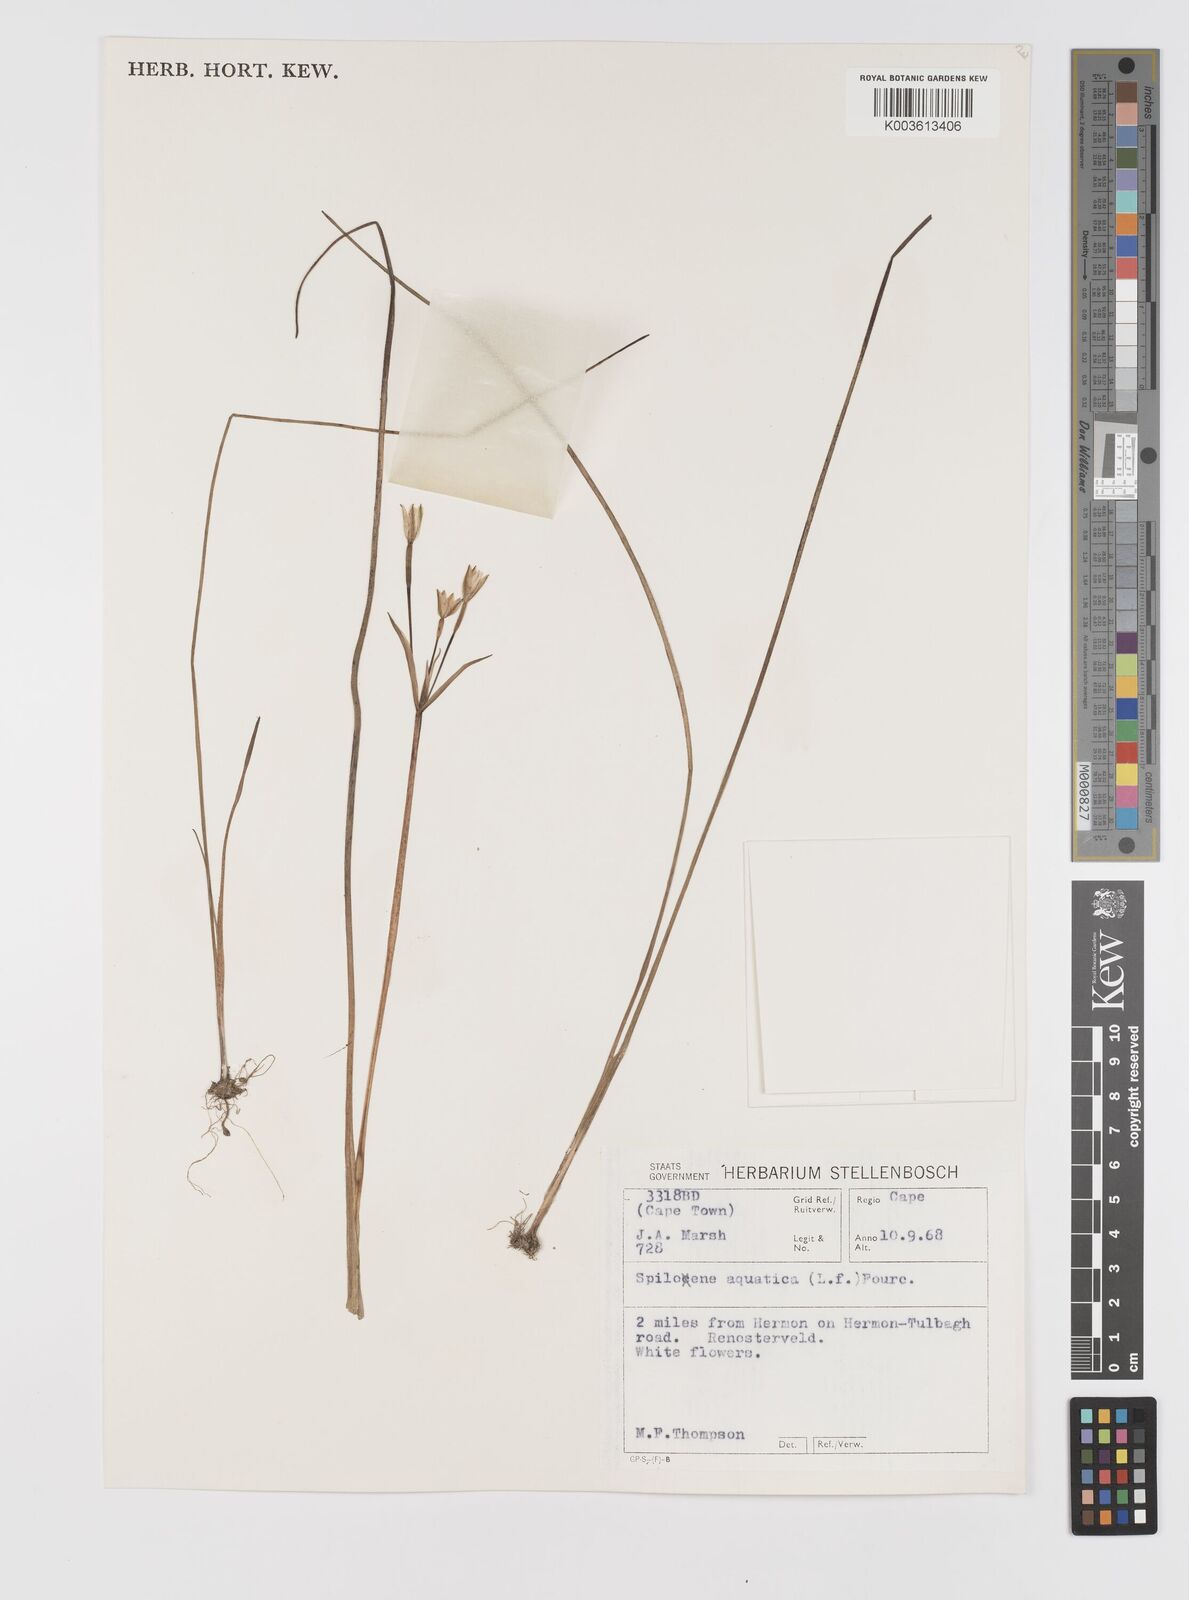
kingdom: Plantae
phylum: Tracheophyta
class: Liliopsida
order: Asparagales
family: Hypoxidaceae
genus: Pauridia
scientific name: Pauridia aquatica
